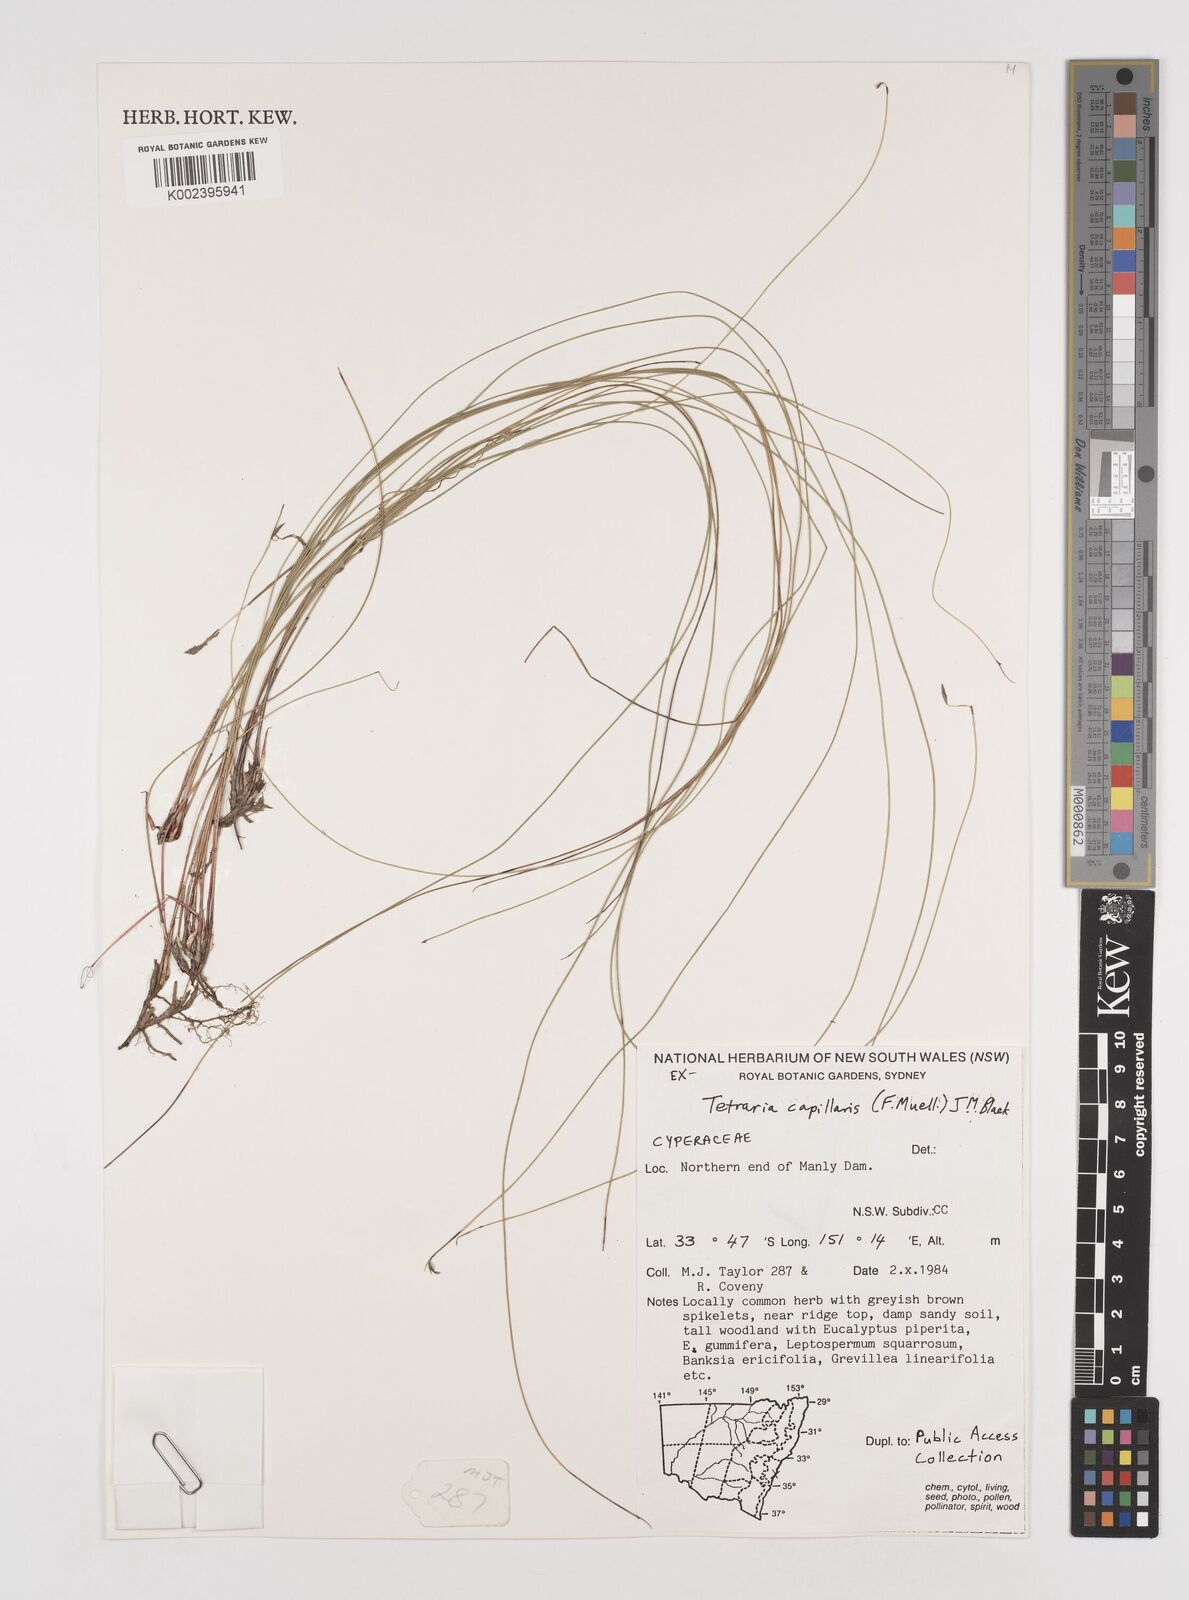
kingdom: Plantae
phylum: Tracheophyta
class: Liliopsida
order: Poales
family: Cyperaceae
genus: Tetraria
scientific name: Tetraria capillaris
